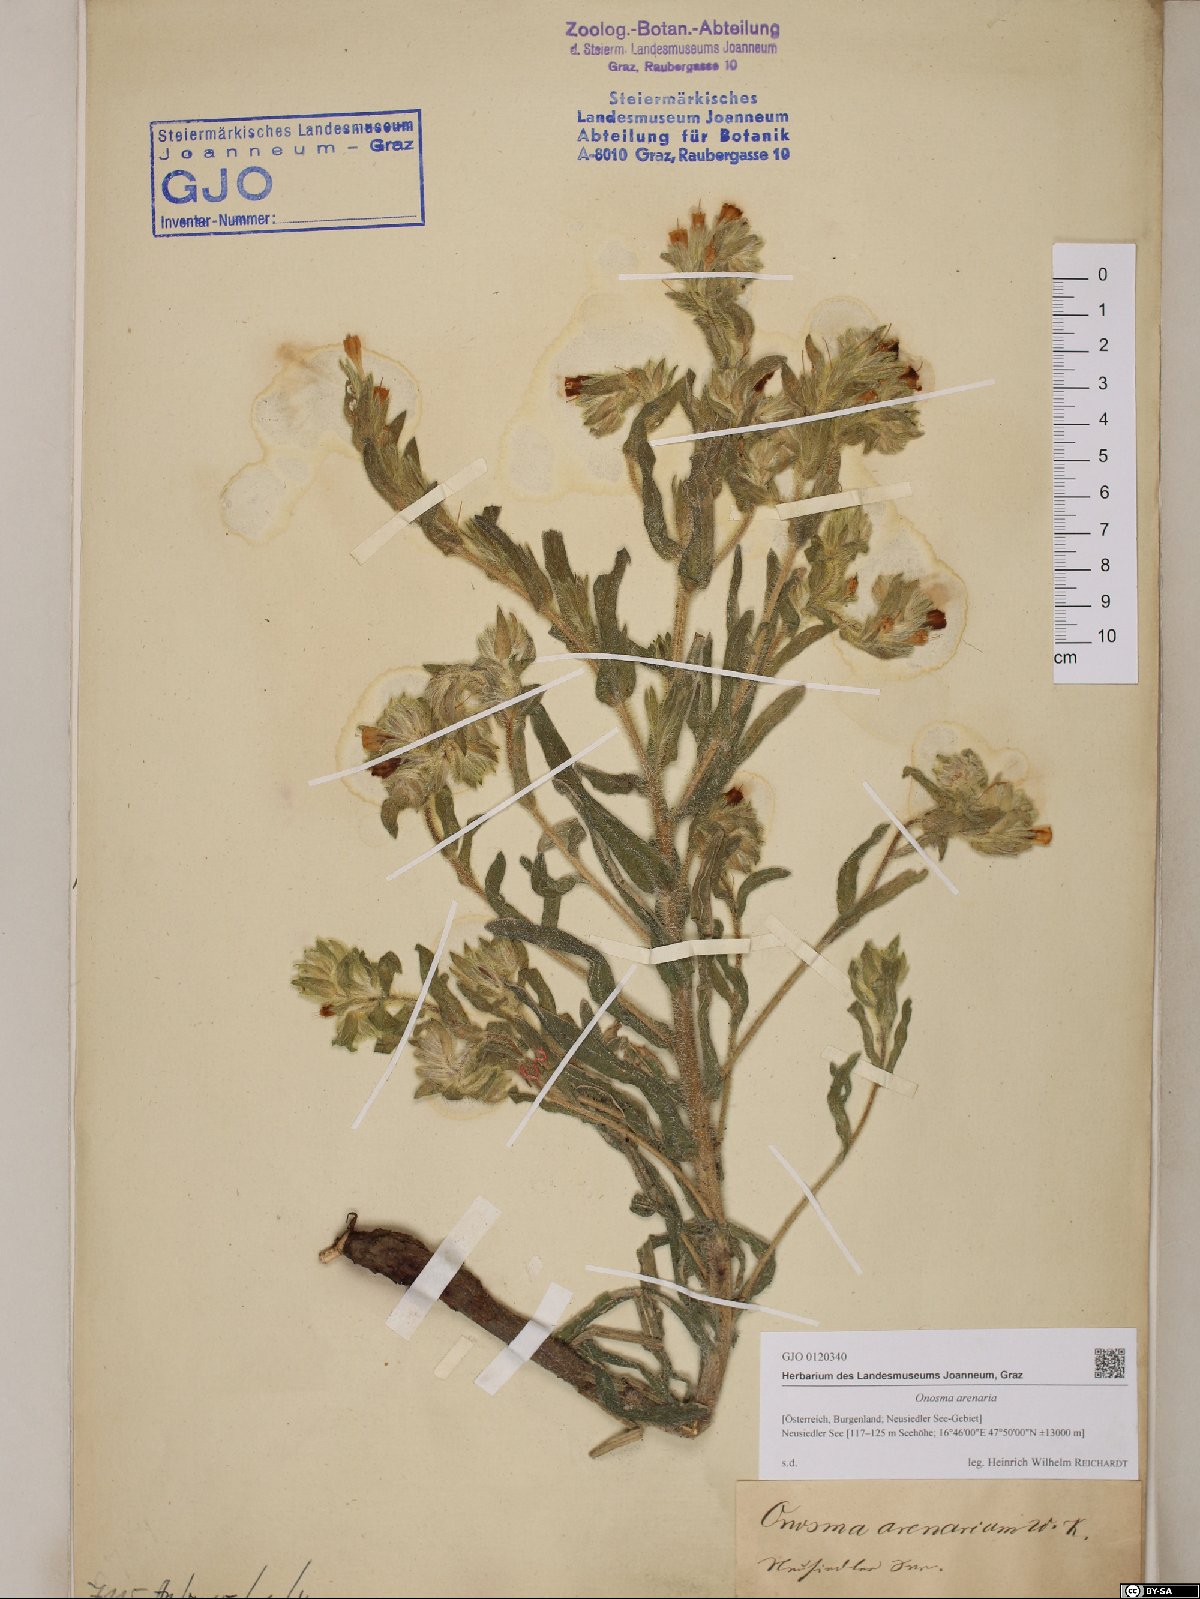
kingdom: Plantae
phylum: Tracheophyta
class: Magnoliopsida
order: Boraginales
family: Boraginaceae
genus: Onosma
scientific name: Onosma arenaria
